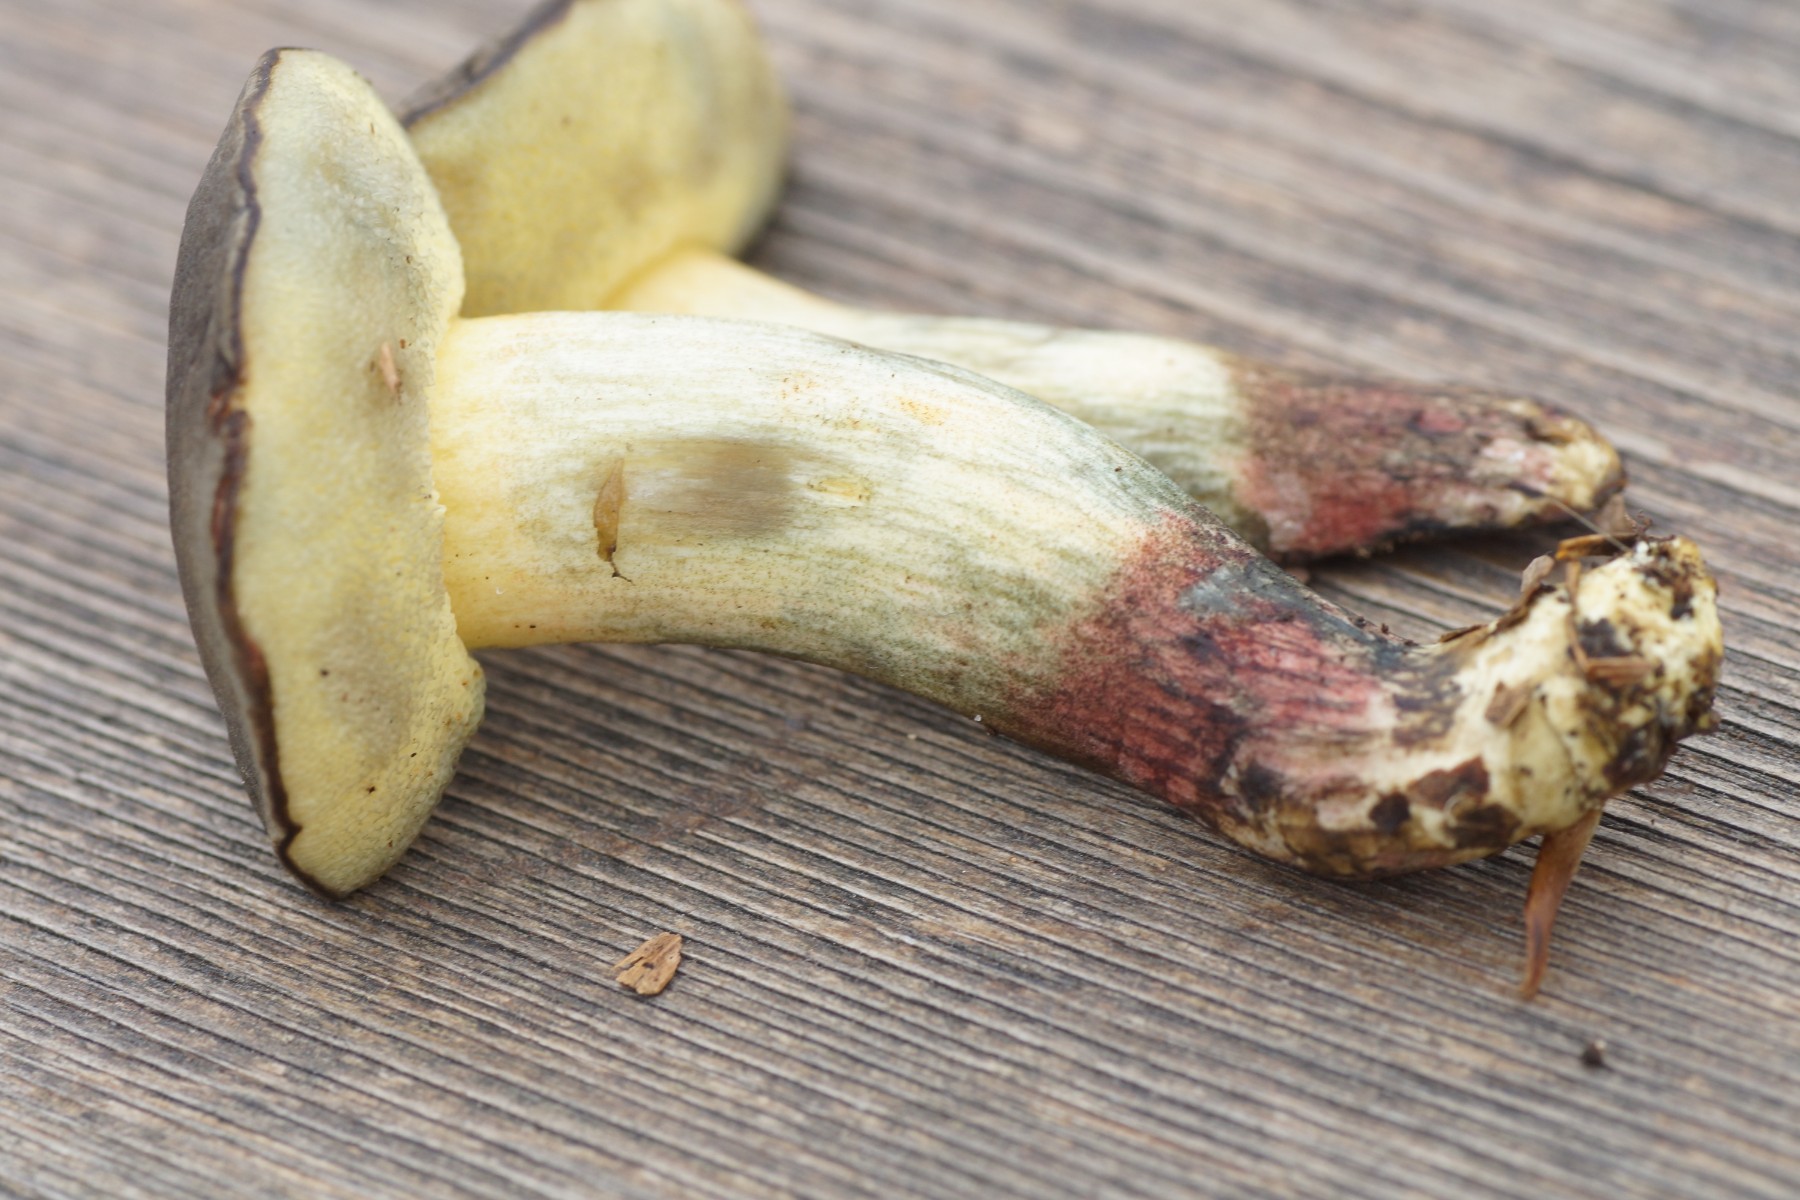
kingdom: Fungi
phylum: Basidiomycota
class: Agaricomycetes
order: Boletales
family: Boletaceae
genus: Xerocomellus
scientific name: Xerocomellus cisalpinus
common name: finsprukken rørhat
